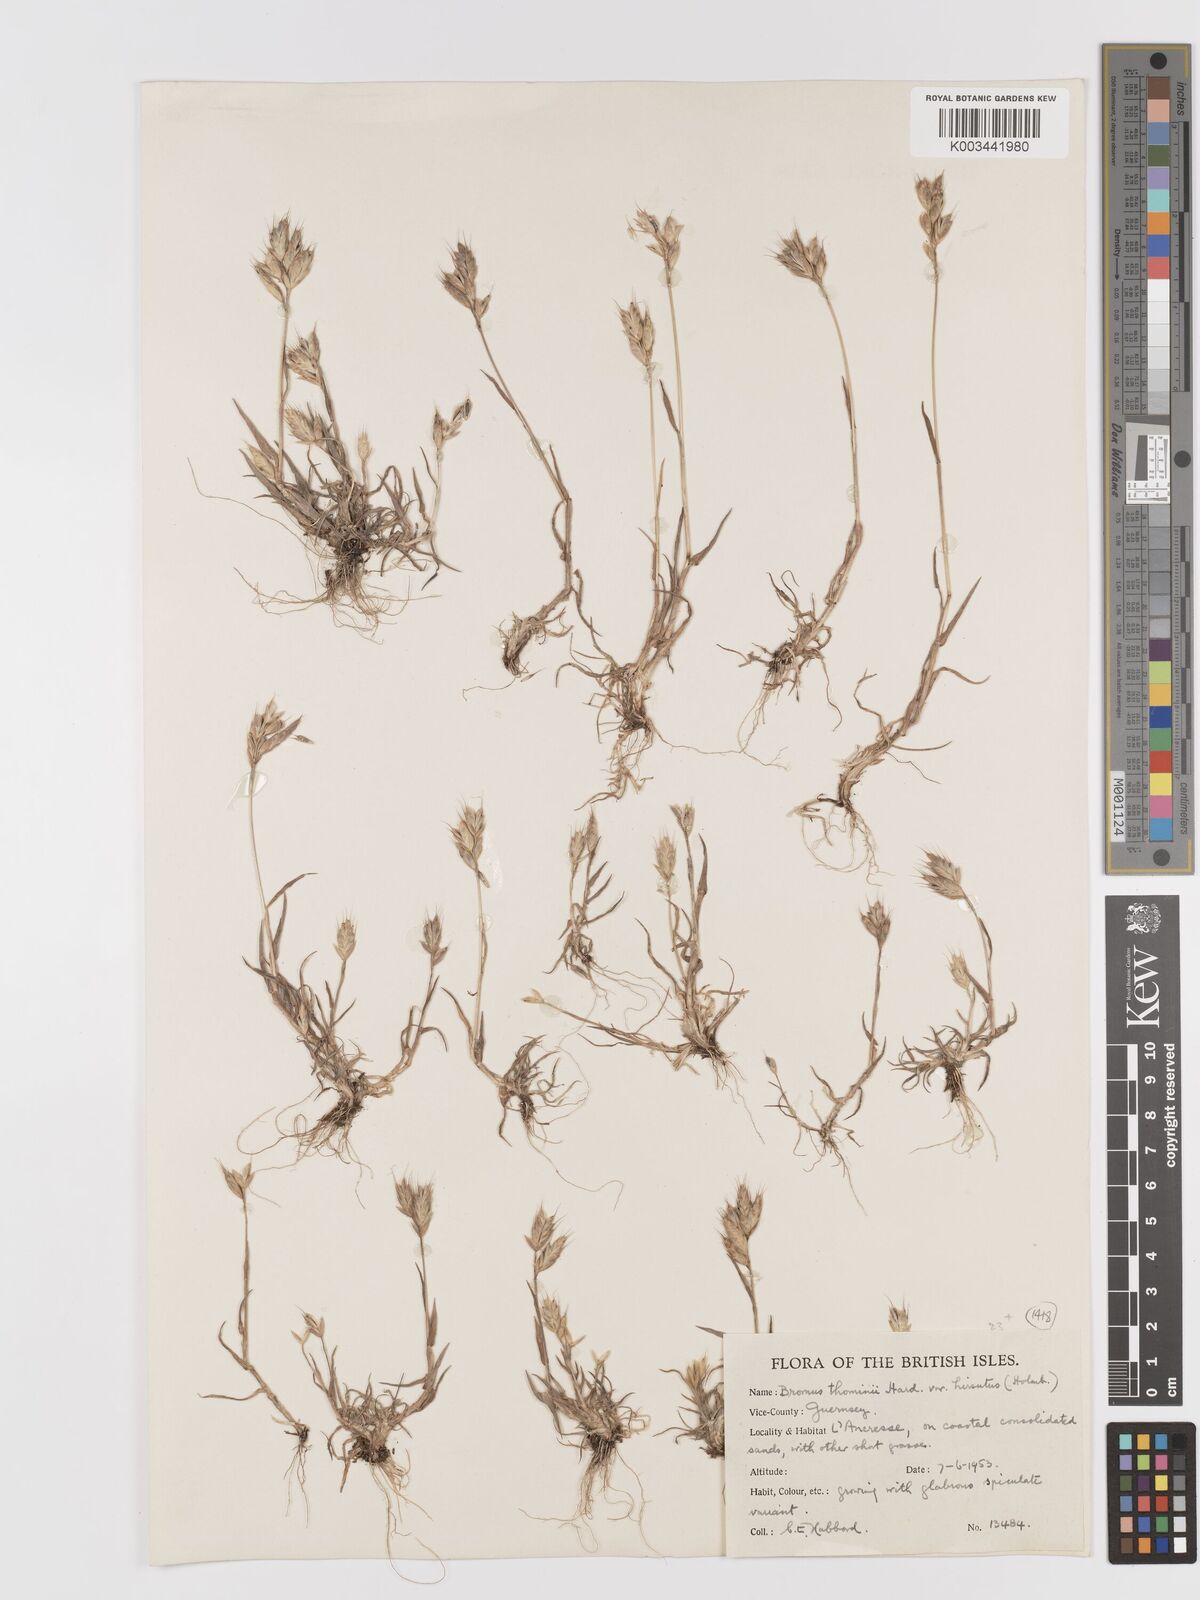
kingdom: Plantae
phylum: Tracheophyta
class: Liliopsida
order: Poales
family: Poaceae
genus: Bromus
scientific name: Bromus hordeaceus
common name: Soft brome
